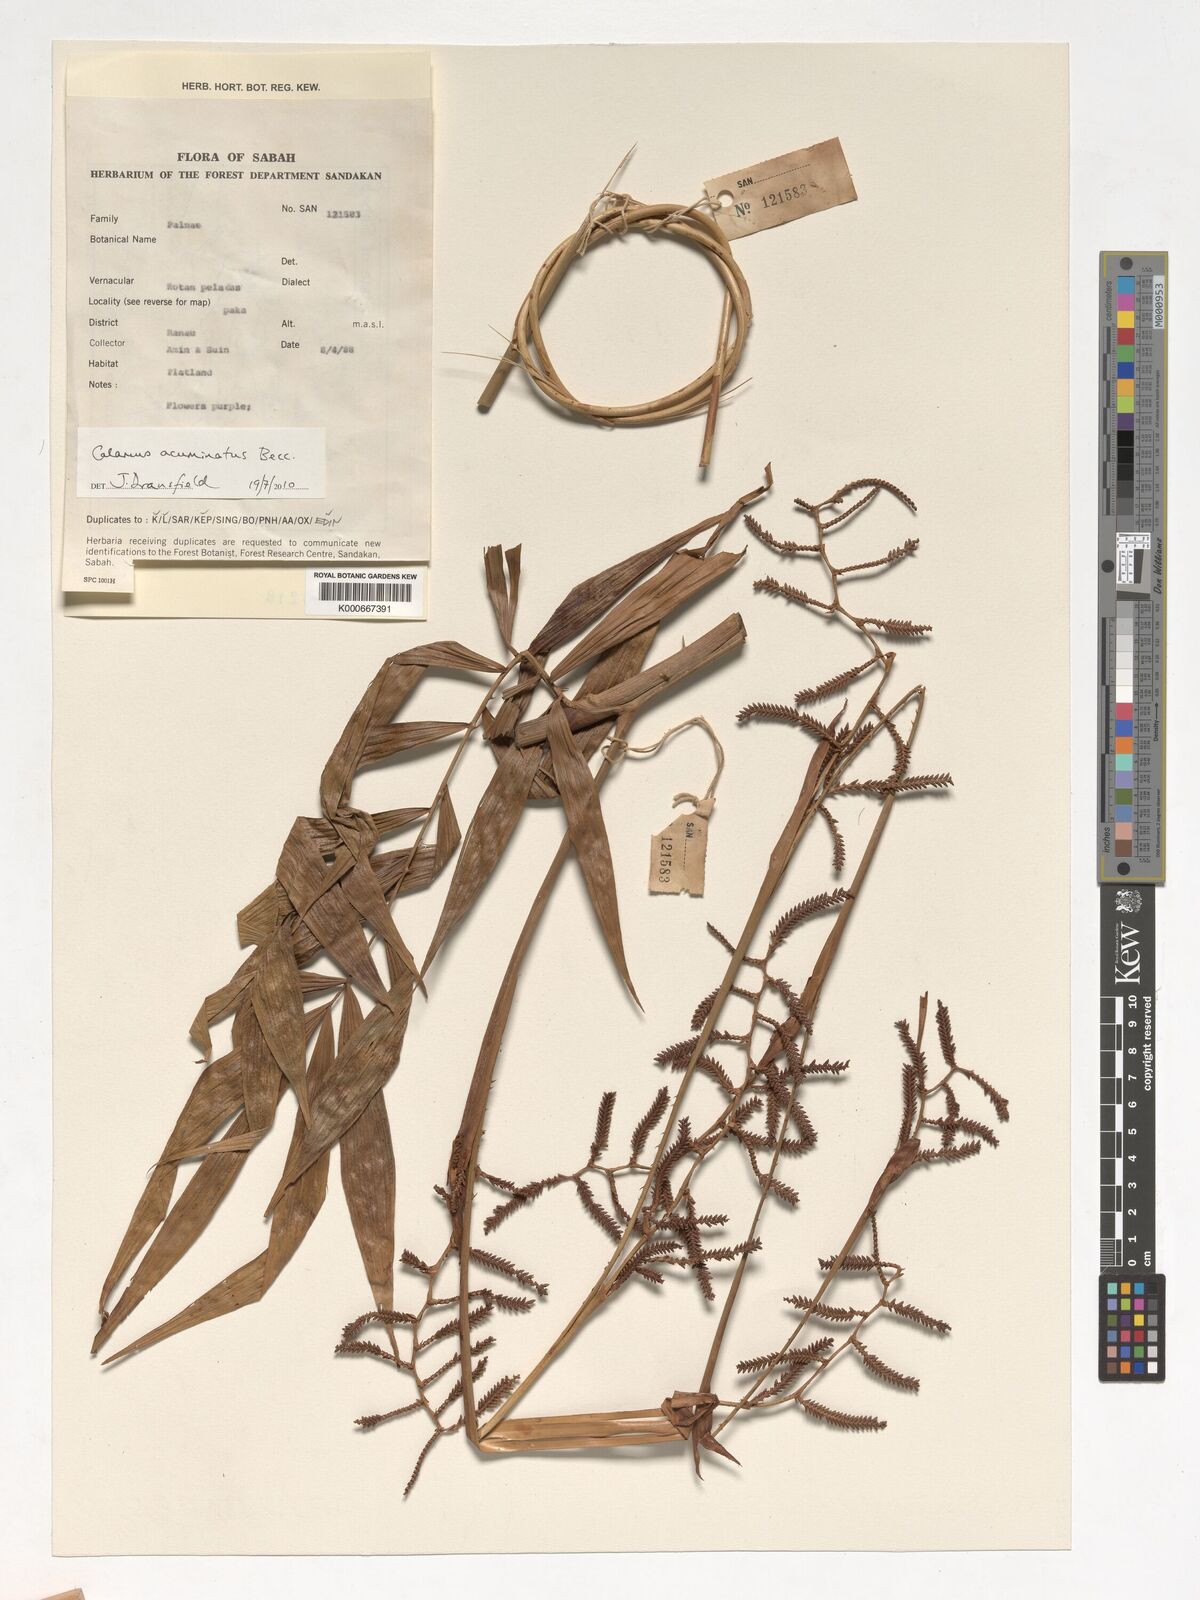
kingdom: Plantae
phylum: Tracheophyta
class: Liliopsida
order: Arecales
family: Arecaceae
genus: Calamus
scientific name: Calamus javensis
